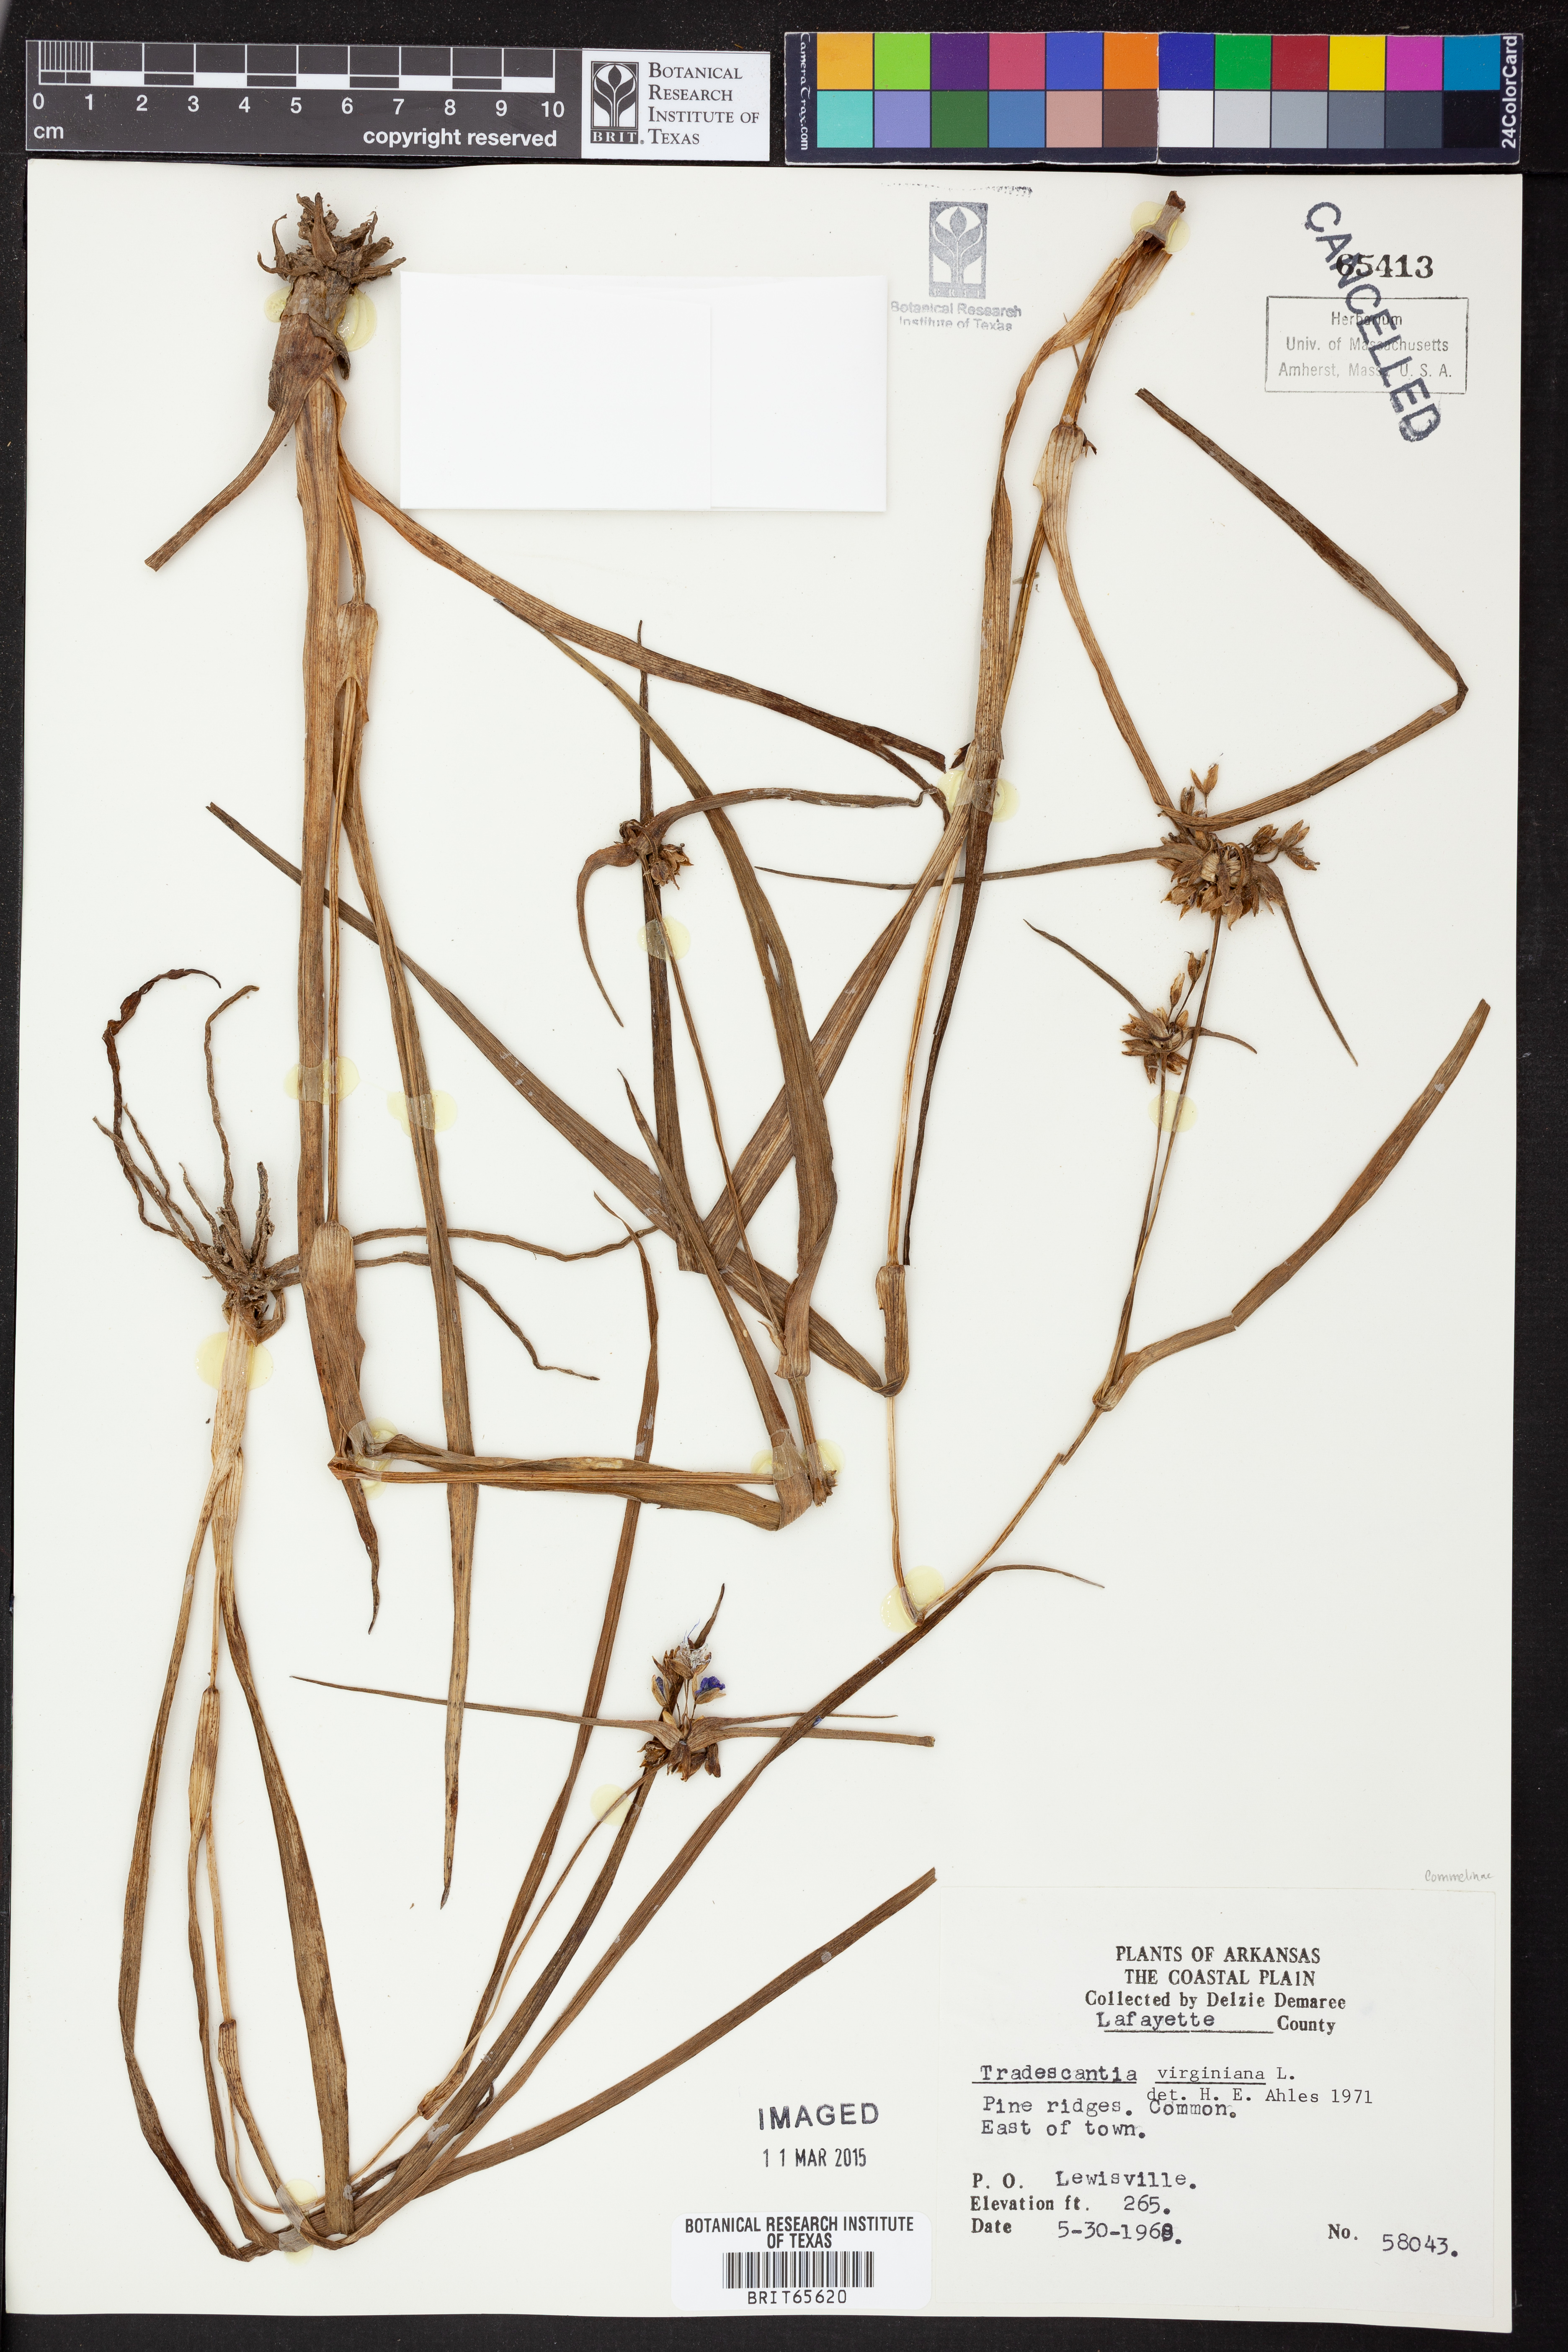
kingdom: Plantae
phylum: Tracheophyta
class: Liliopsida
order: Commelinales
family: Commelinaceae
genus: Tradescantia
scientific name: Tradescantia virginiana
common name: Spiderwort
